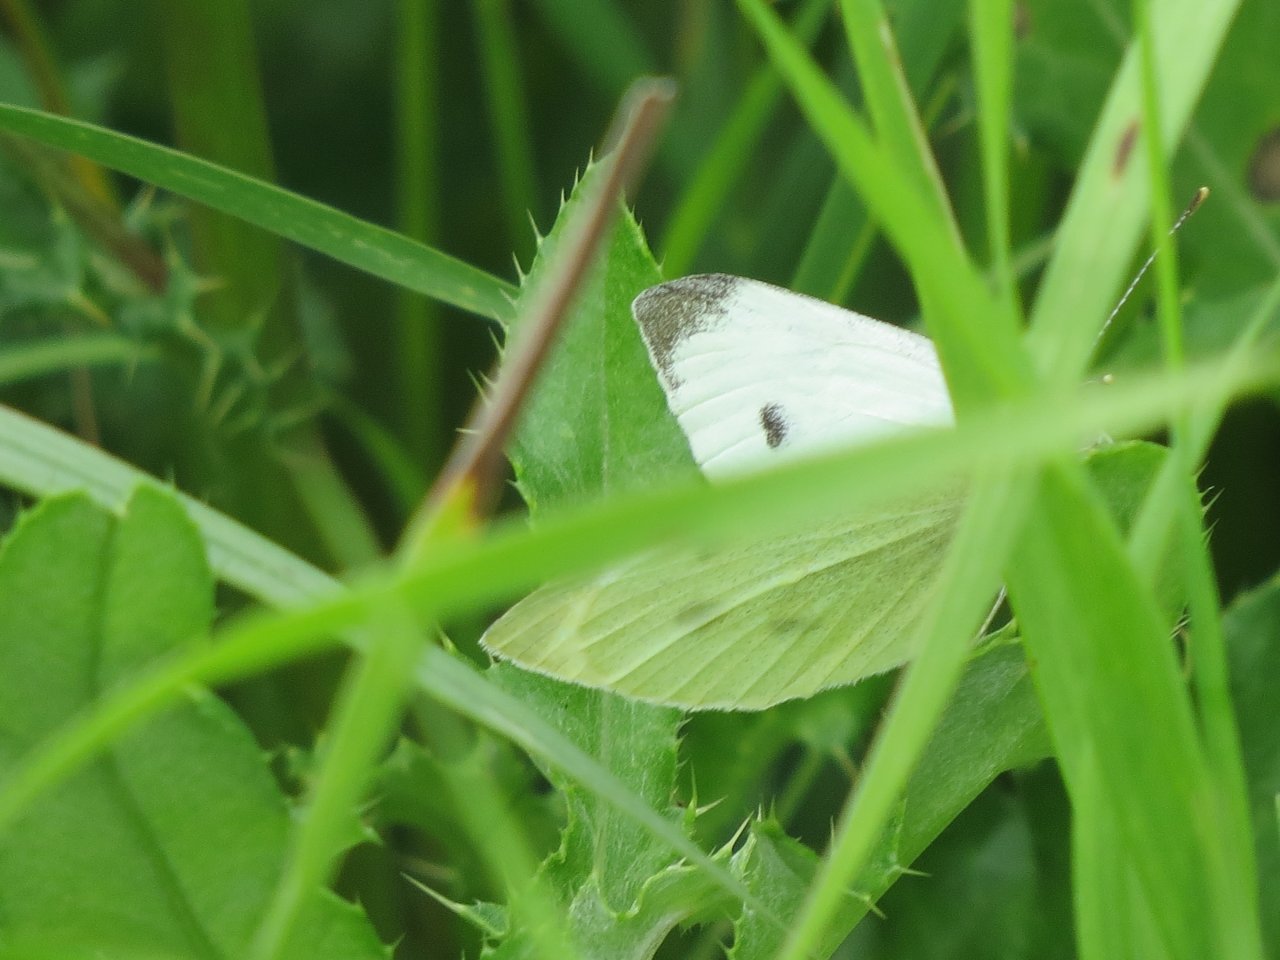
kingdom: Animalia
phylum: Arthropoda
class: Insecta
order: Lepidoptera
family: Pieridae
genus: Pieris
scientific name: Pieris rapae
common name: Cabbage White
